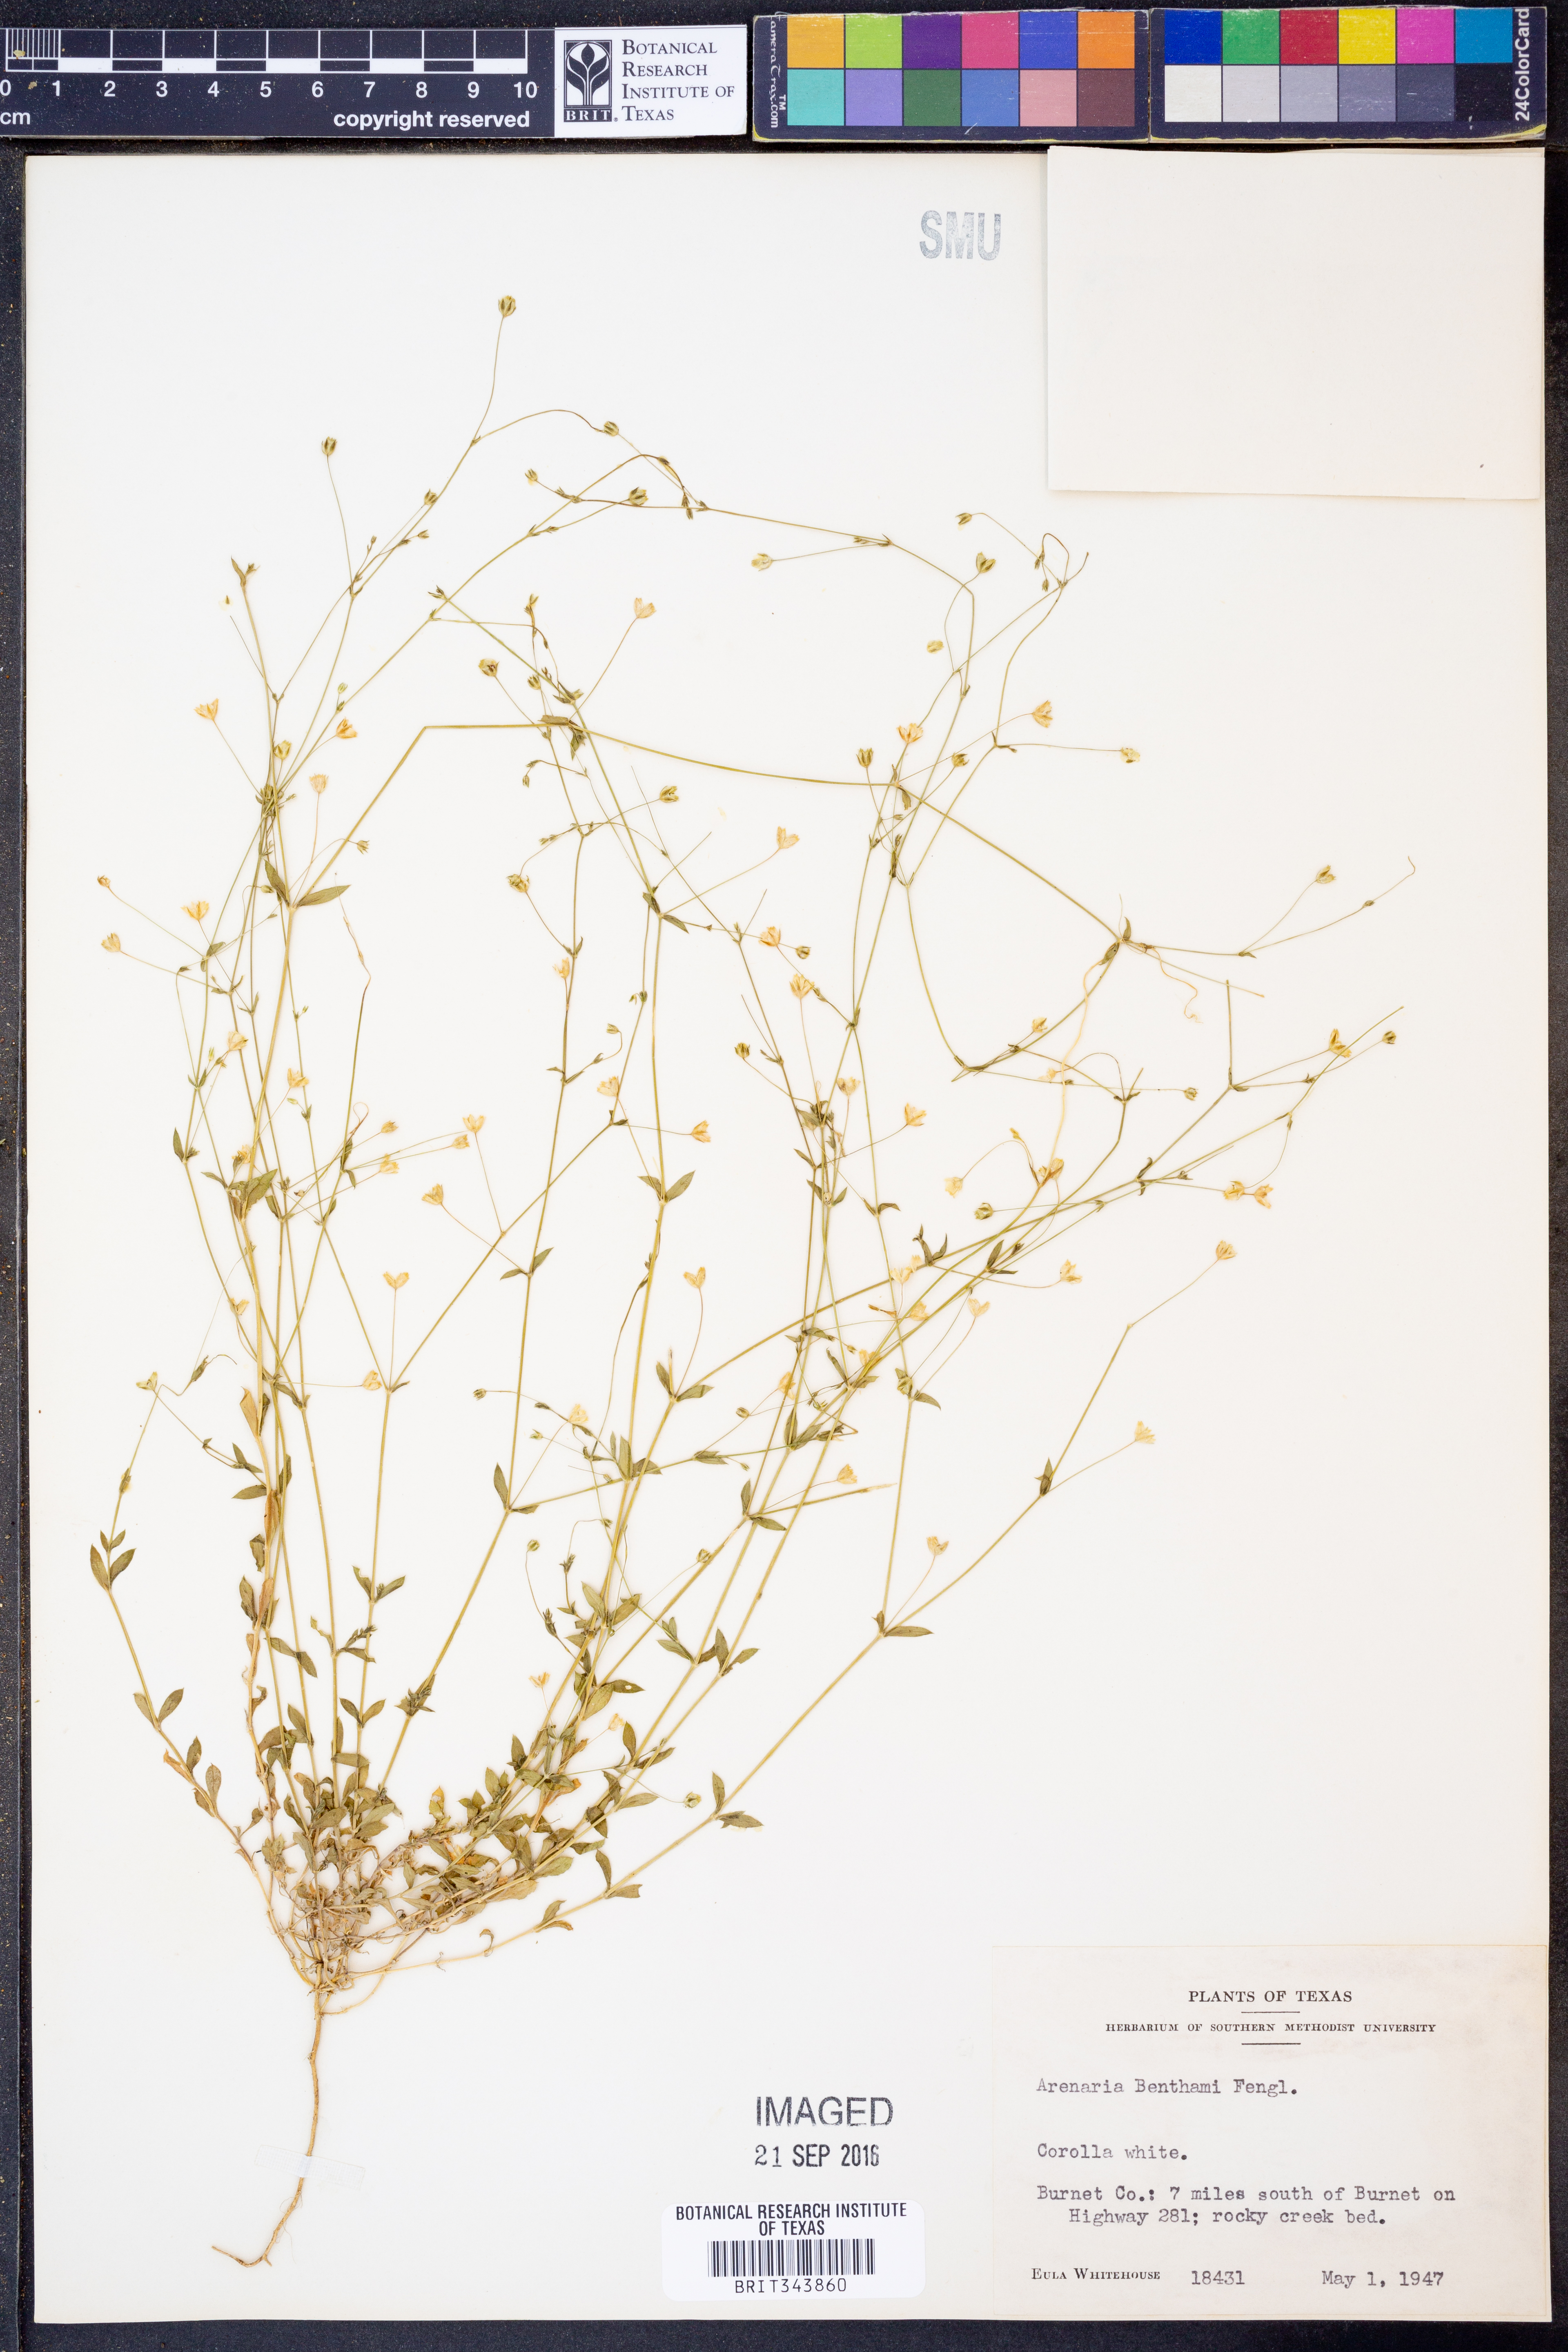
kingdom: Plantae
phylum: Tracheophyta
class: Magnoliopsida
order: Caryophyllales
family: Caryophyllaceae
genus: Arenaria
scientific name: Arenaria benthamii
